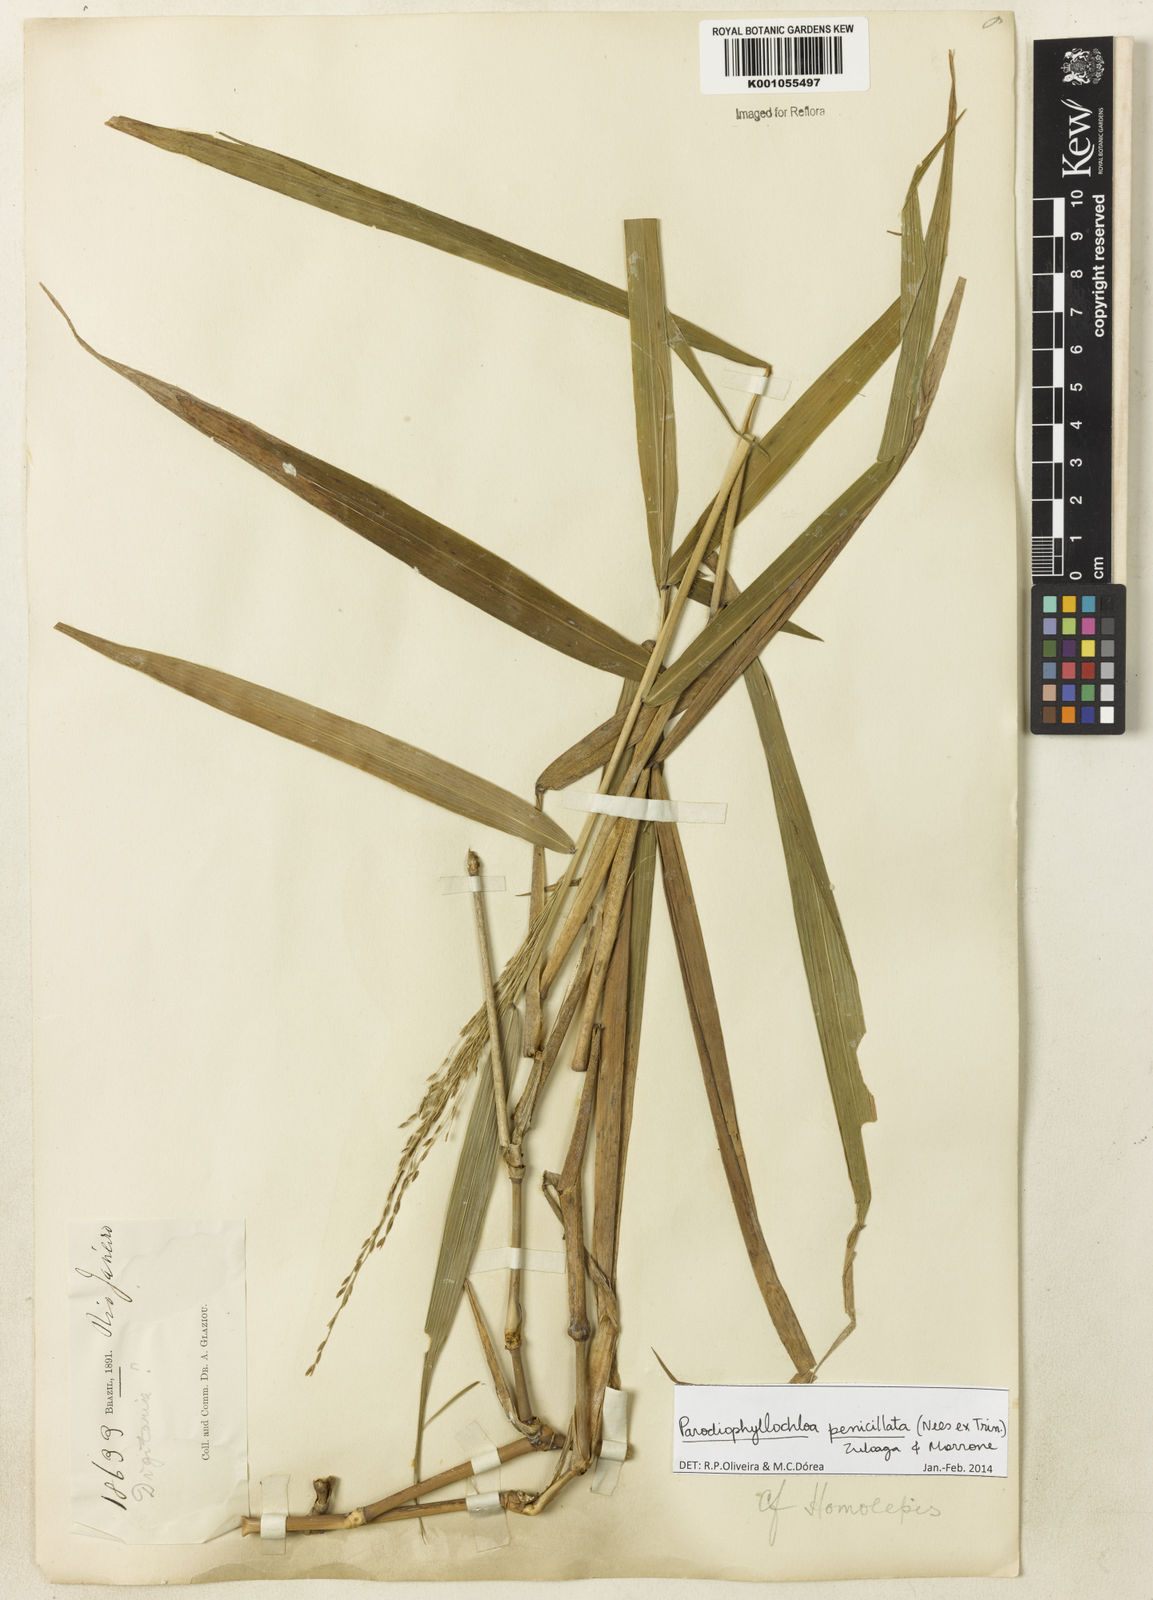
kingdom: Plantae
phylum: Tracheophyta
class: Liliopsida
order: Poales
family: Poaceae
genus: Panicum
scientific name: Panicum
